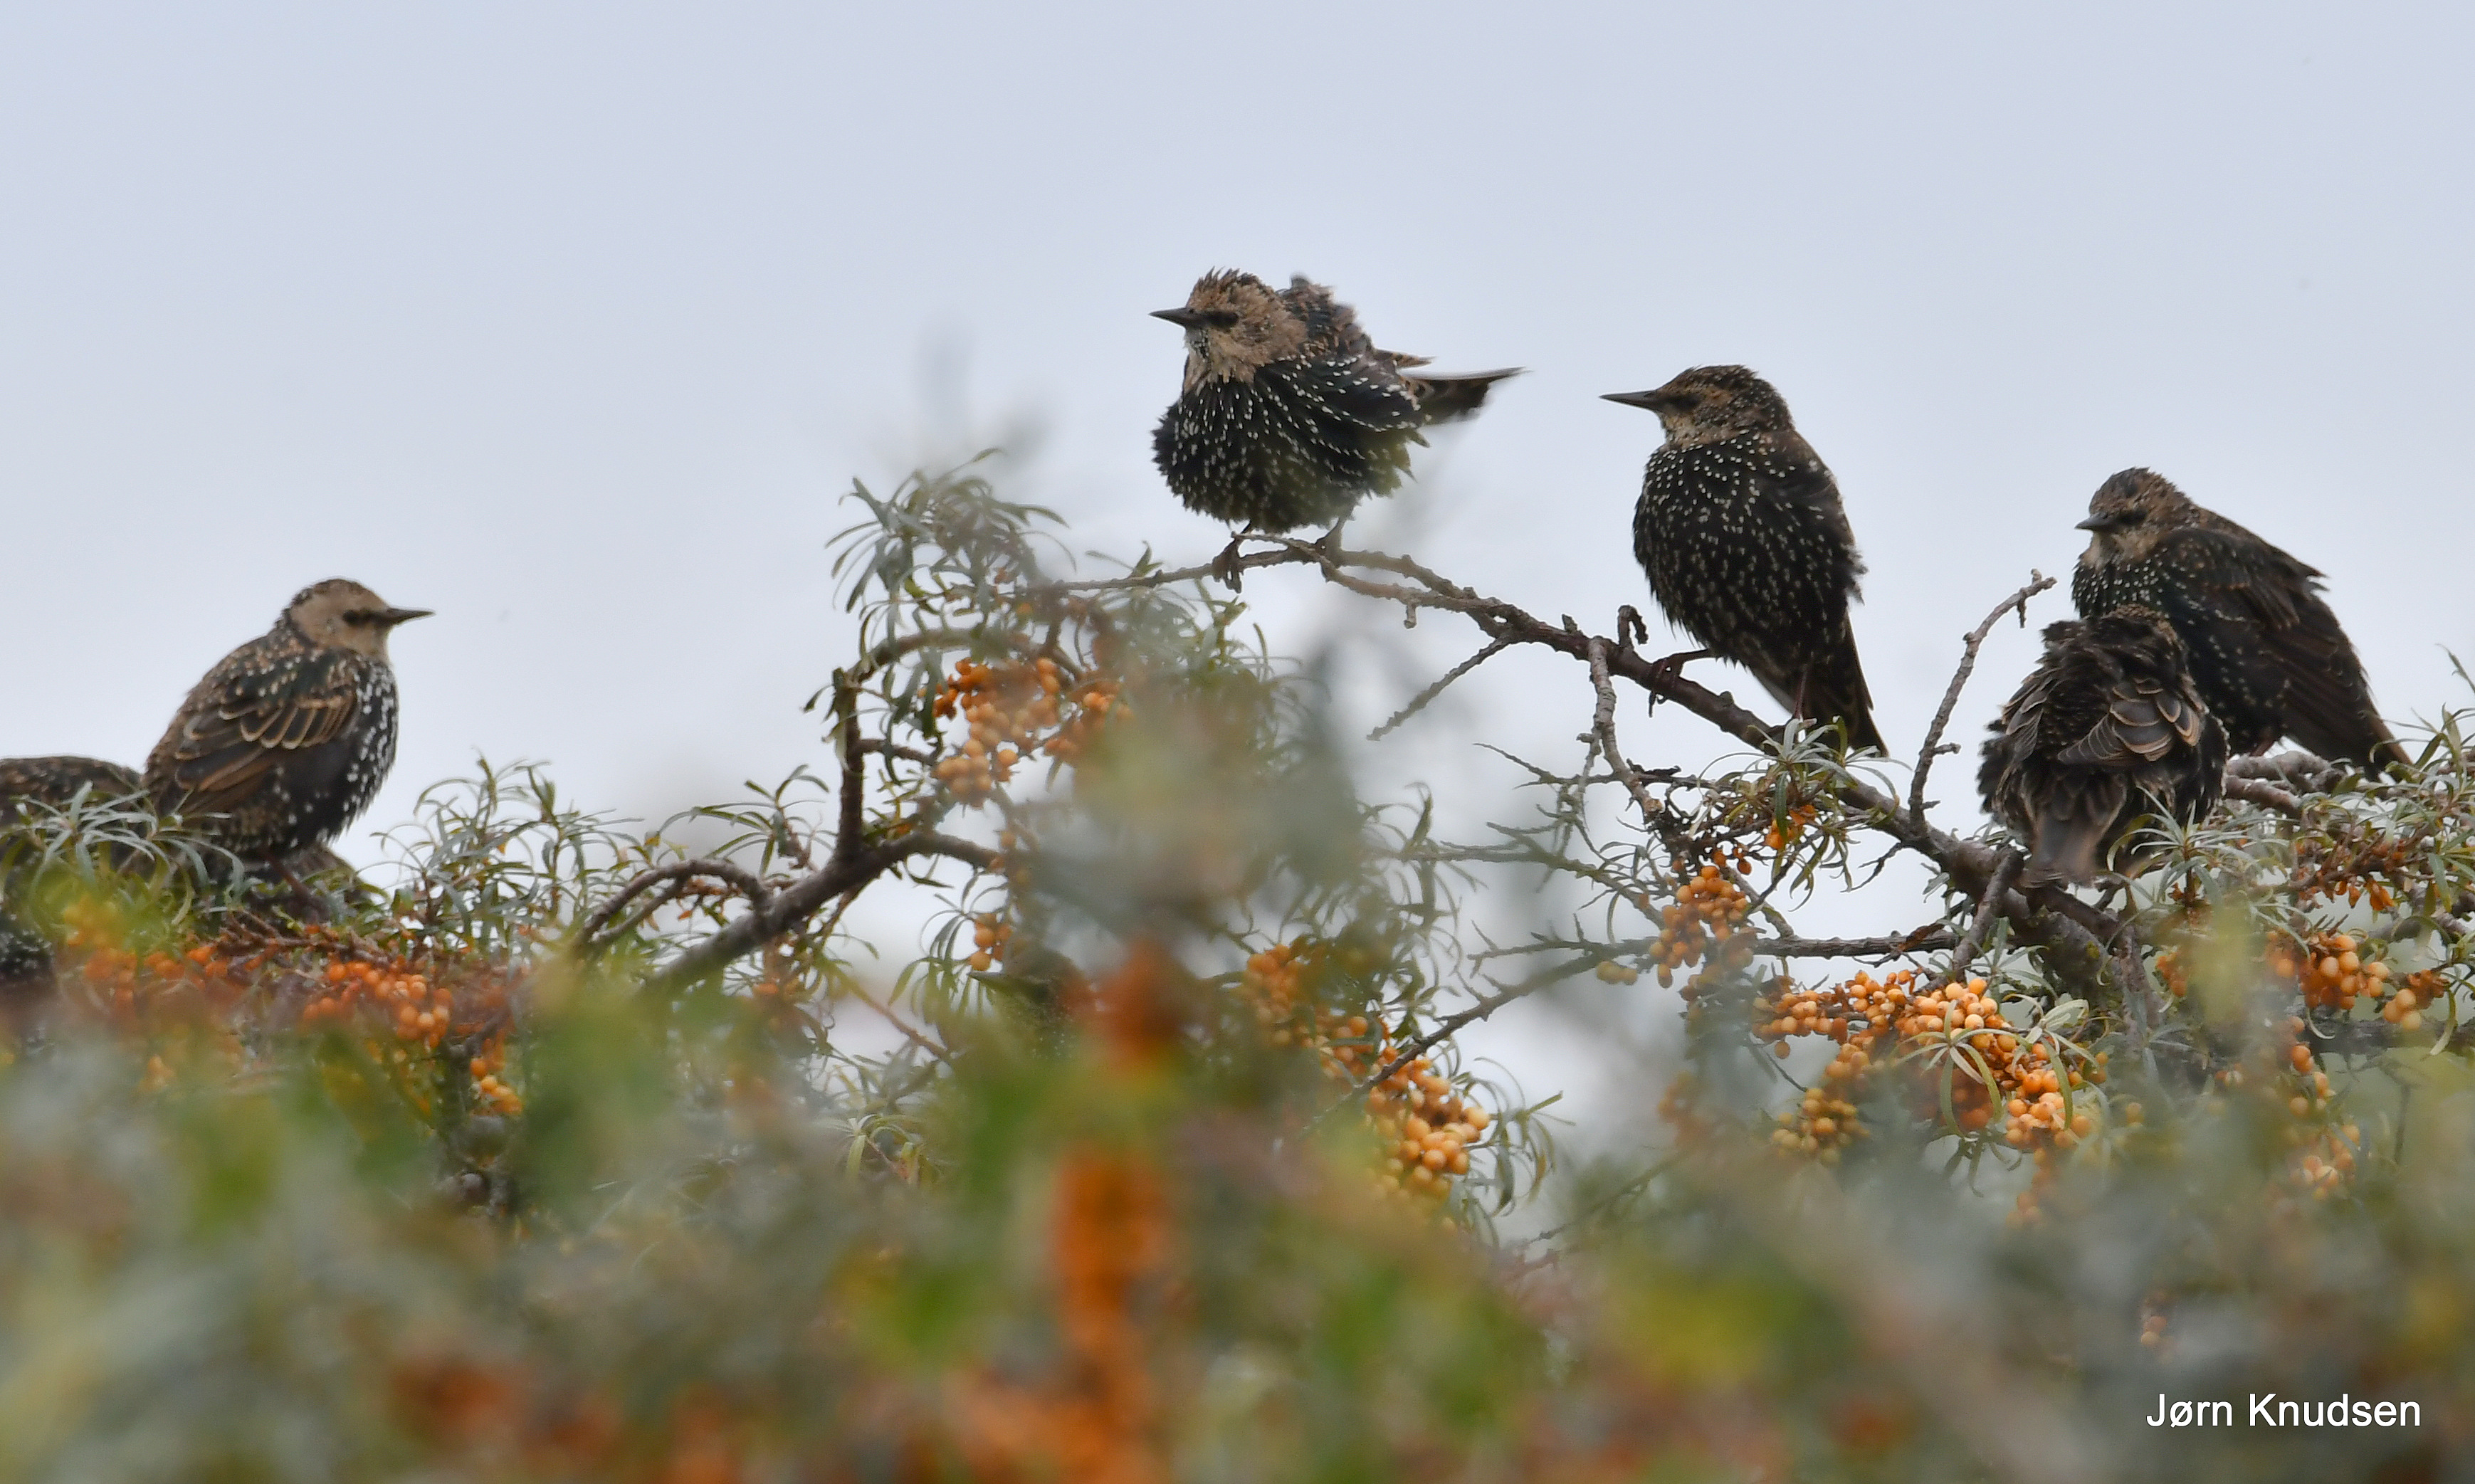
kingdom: Animalia
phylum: Chordata
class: Aves
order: Passeriformes
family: Sturnidae
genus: Sturnus
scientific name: Sturnus vulgaris
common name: Stær
